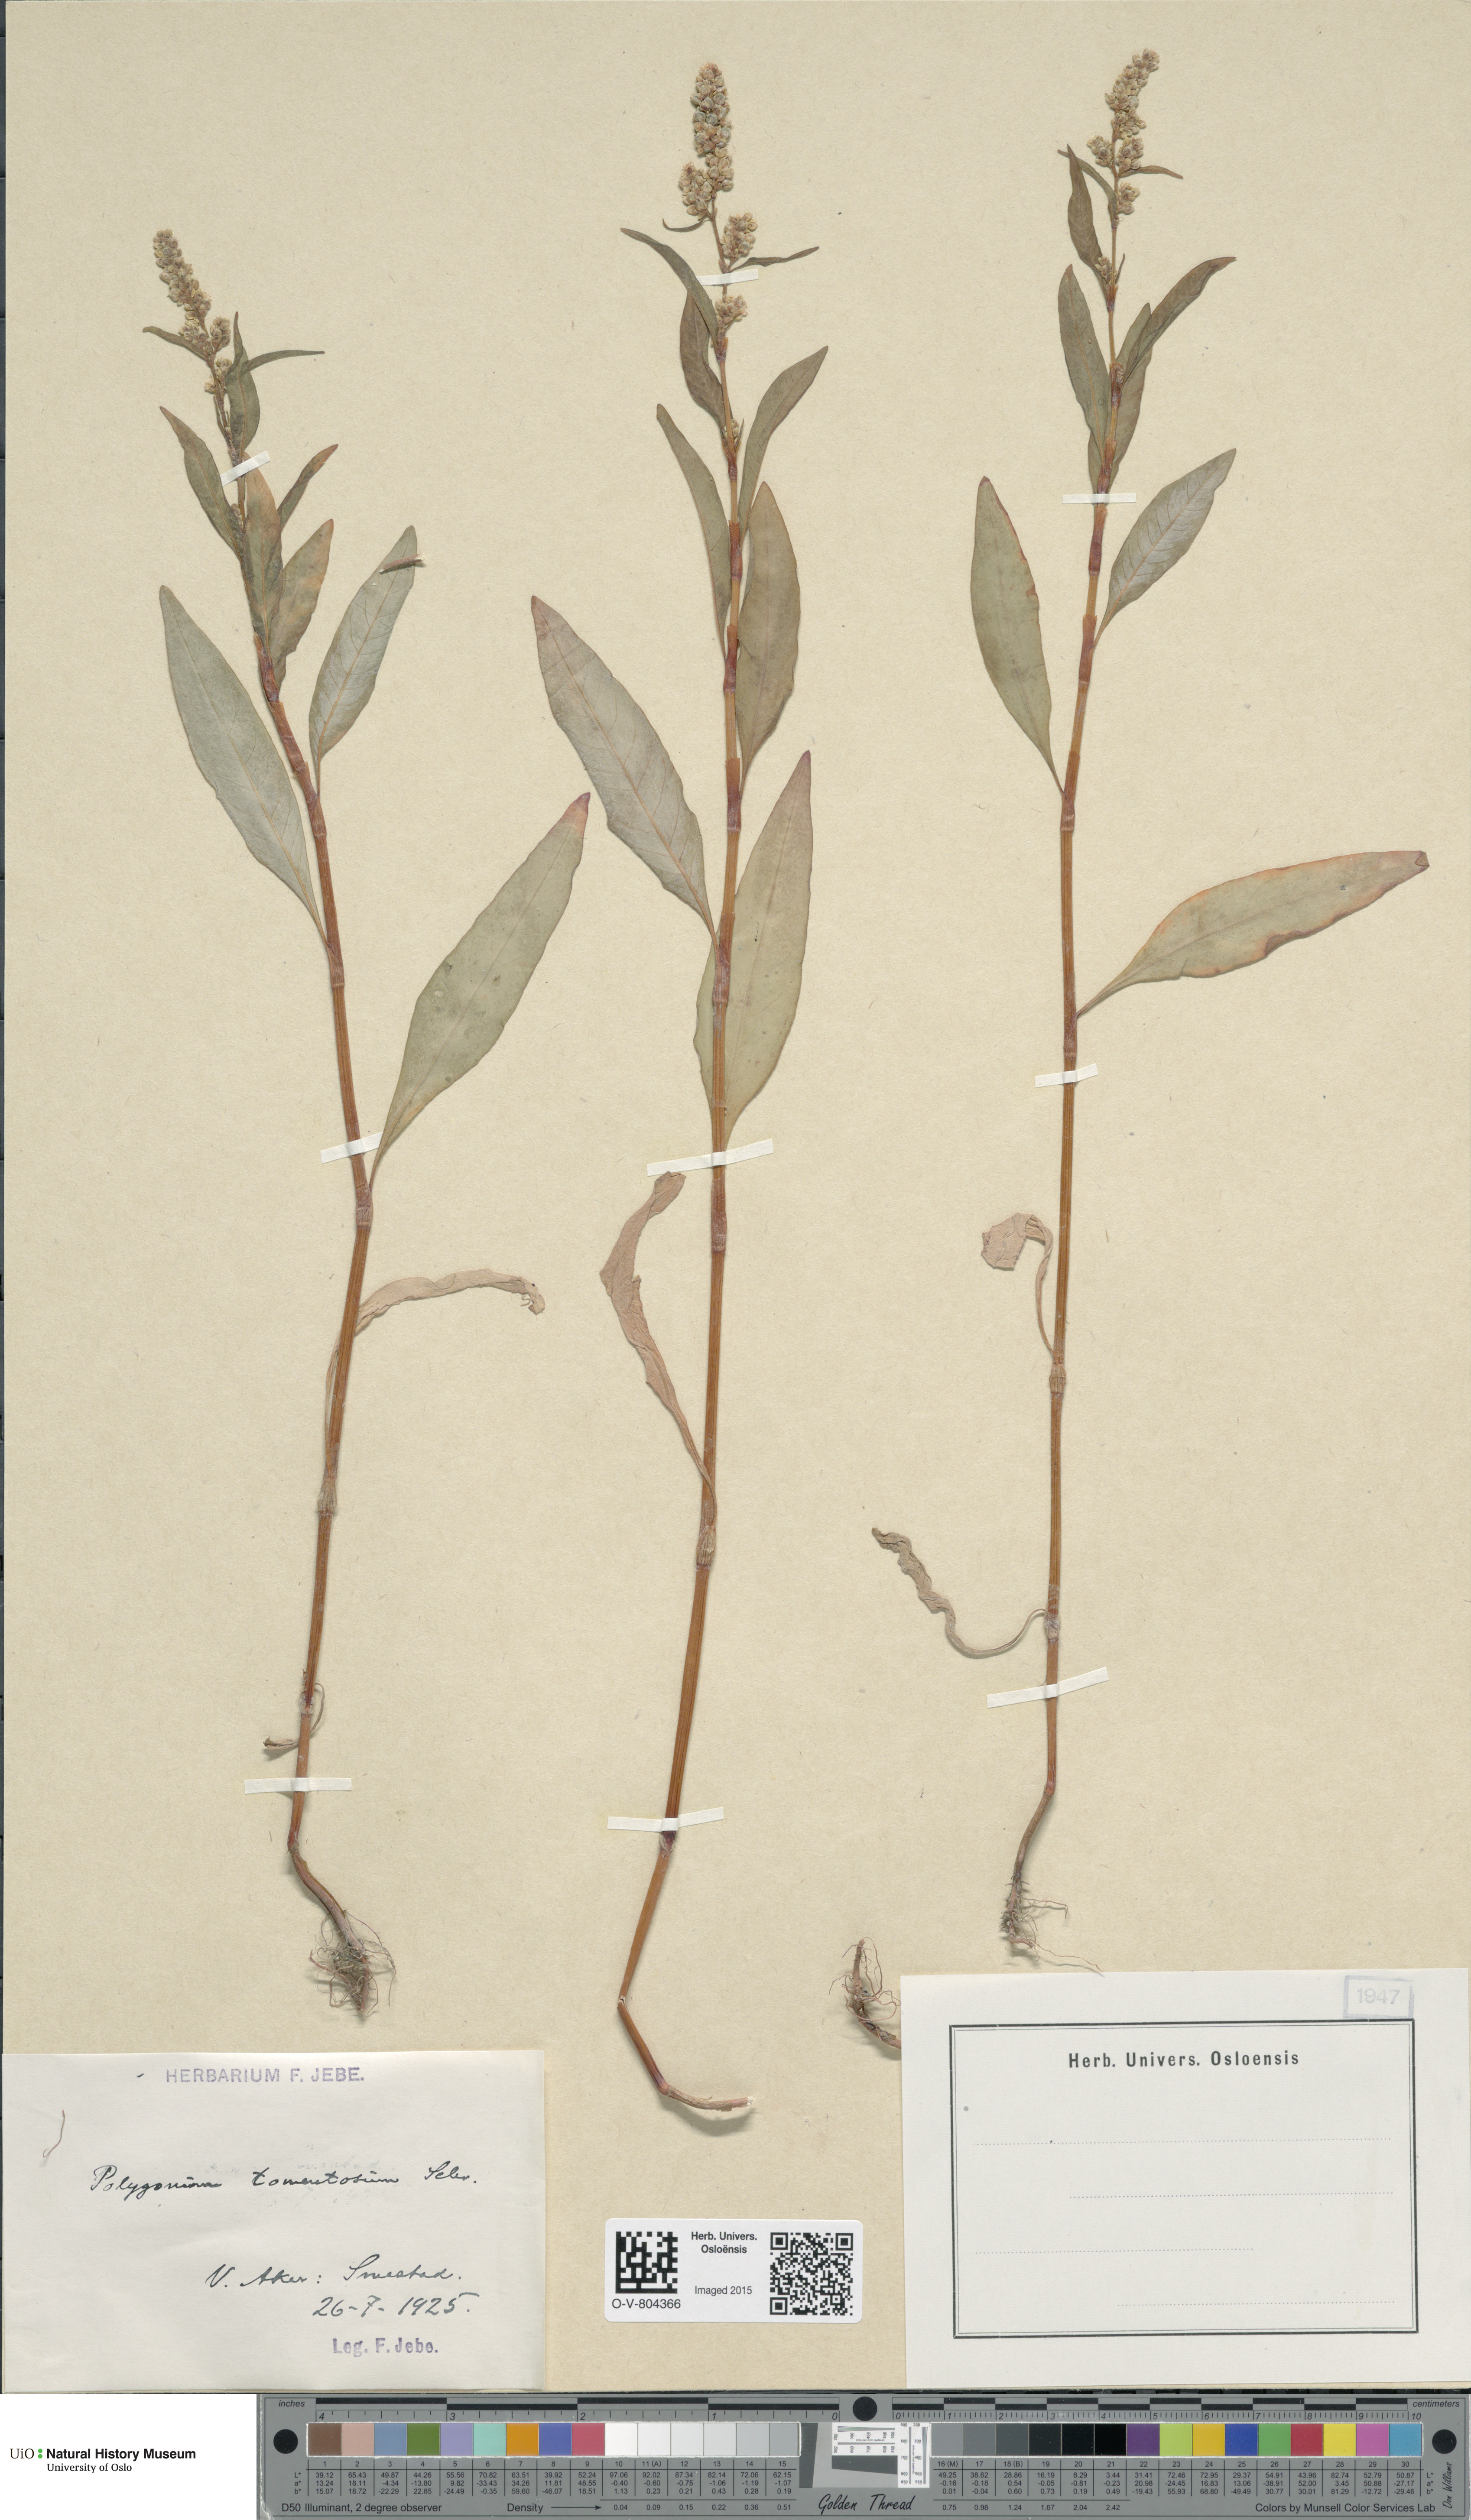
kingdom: Plantae
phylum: Tracheophyta
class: Magnoliopsida
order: Caryophyllales
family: Polygonaceae
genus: Persicaria
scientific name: Persicaria lapathifolia
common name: Curlytop knotweed
